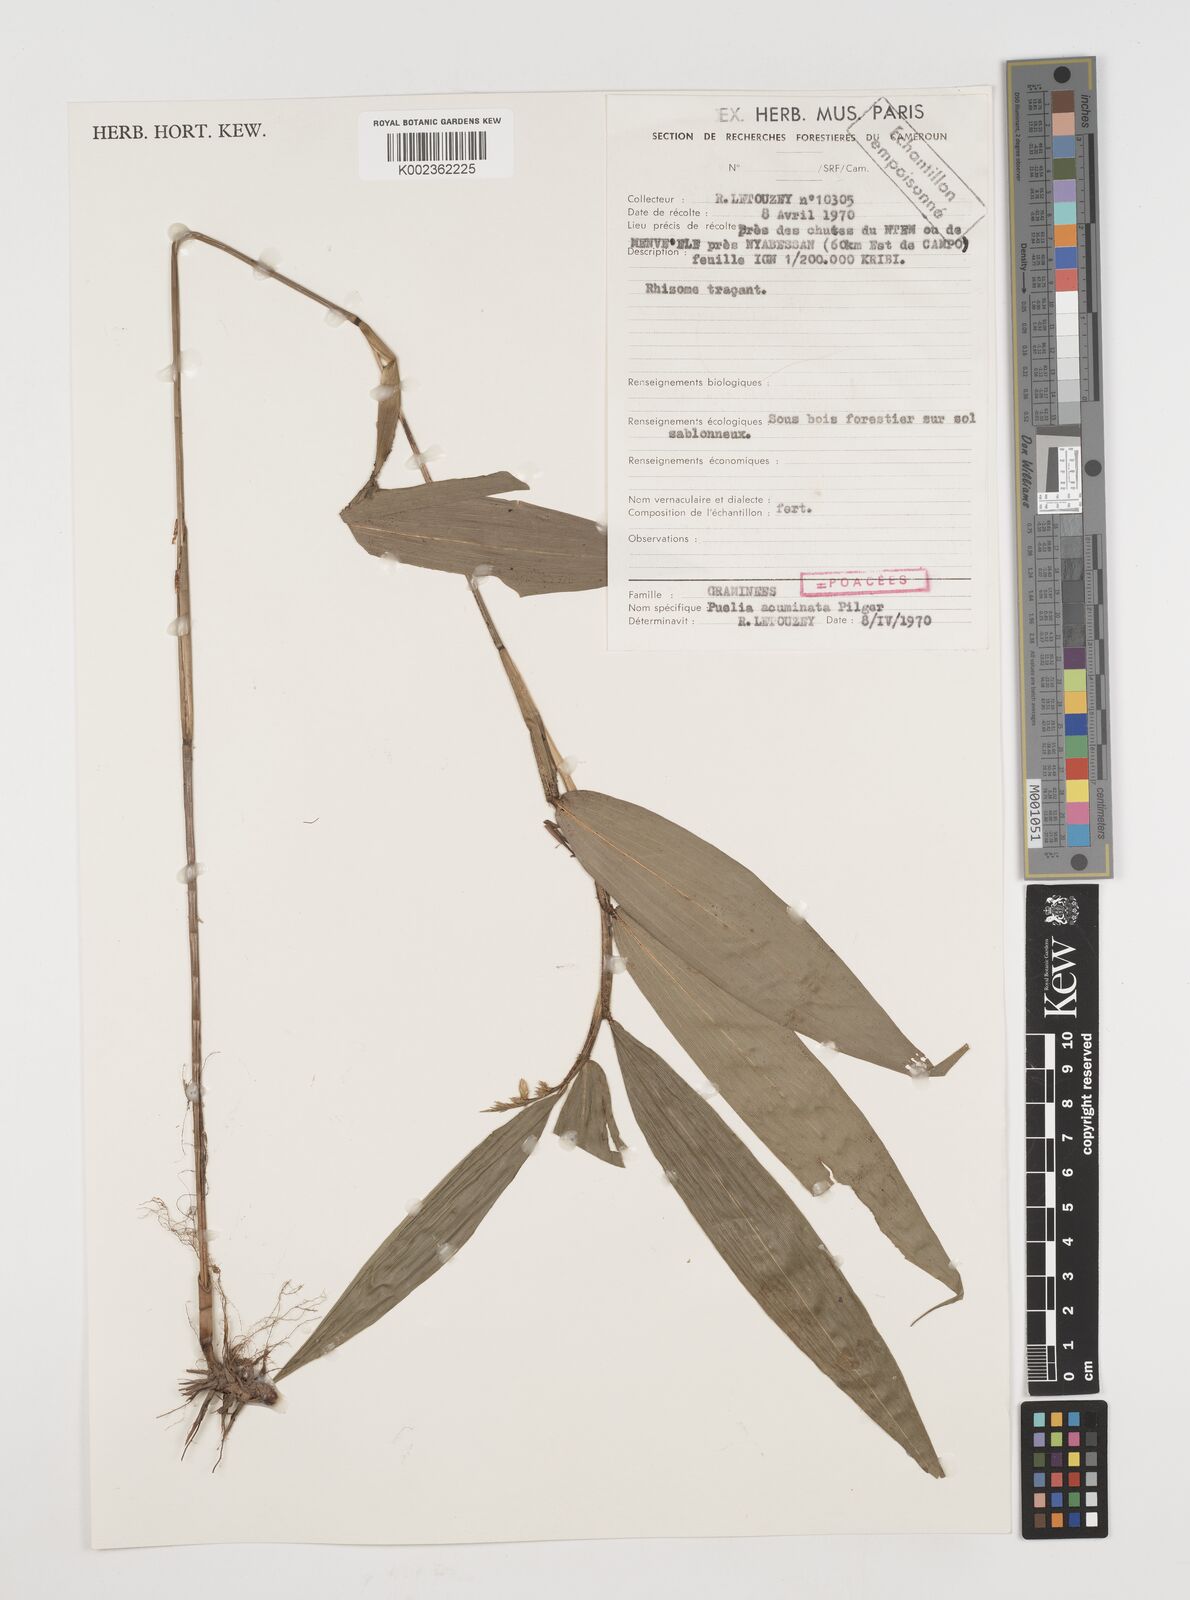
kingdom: Plantae
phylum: Tracheophyta
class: Liliopsida
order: Poales
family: Poaceae
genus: Puelia
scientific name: Puelia ciliata
